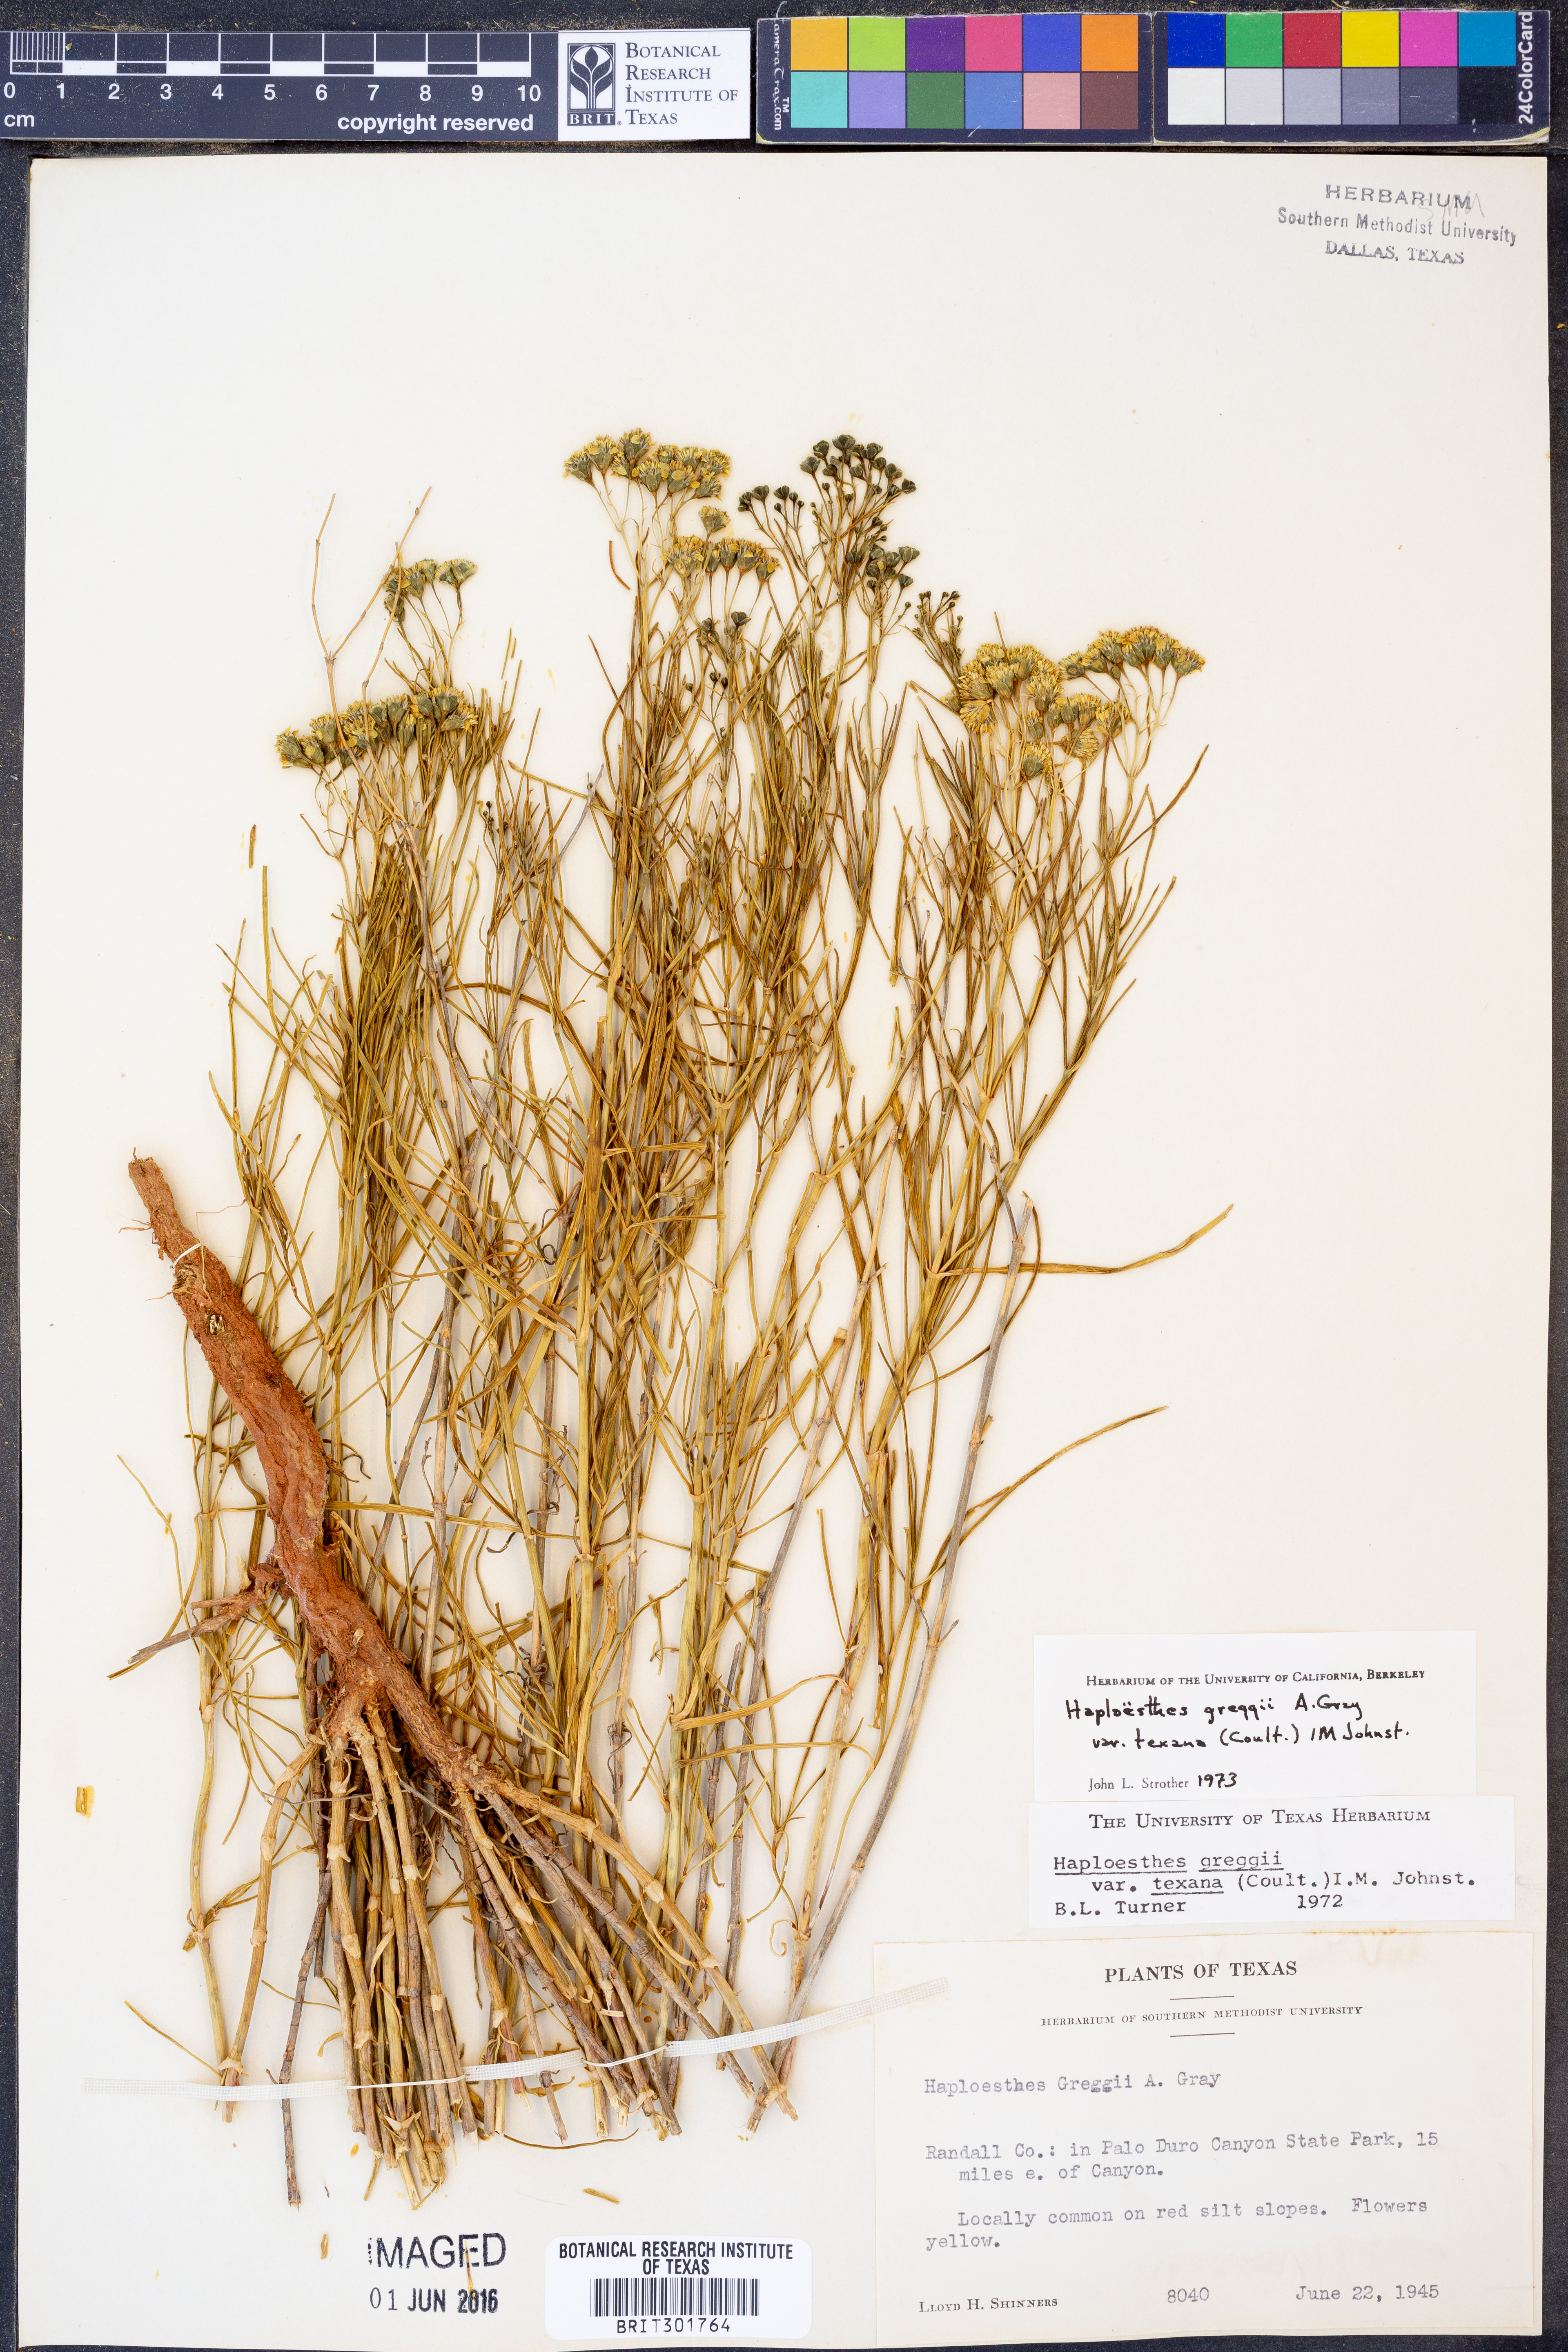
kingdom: Plantae
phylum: Tracheophyta
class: Magnoliopsida
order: Asterales
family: Asteraceae
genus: Haploesthes
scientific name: Haploesthes greggii
